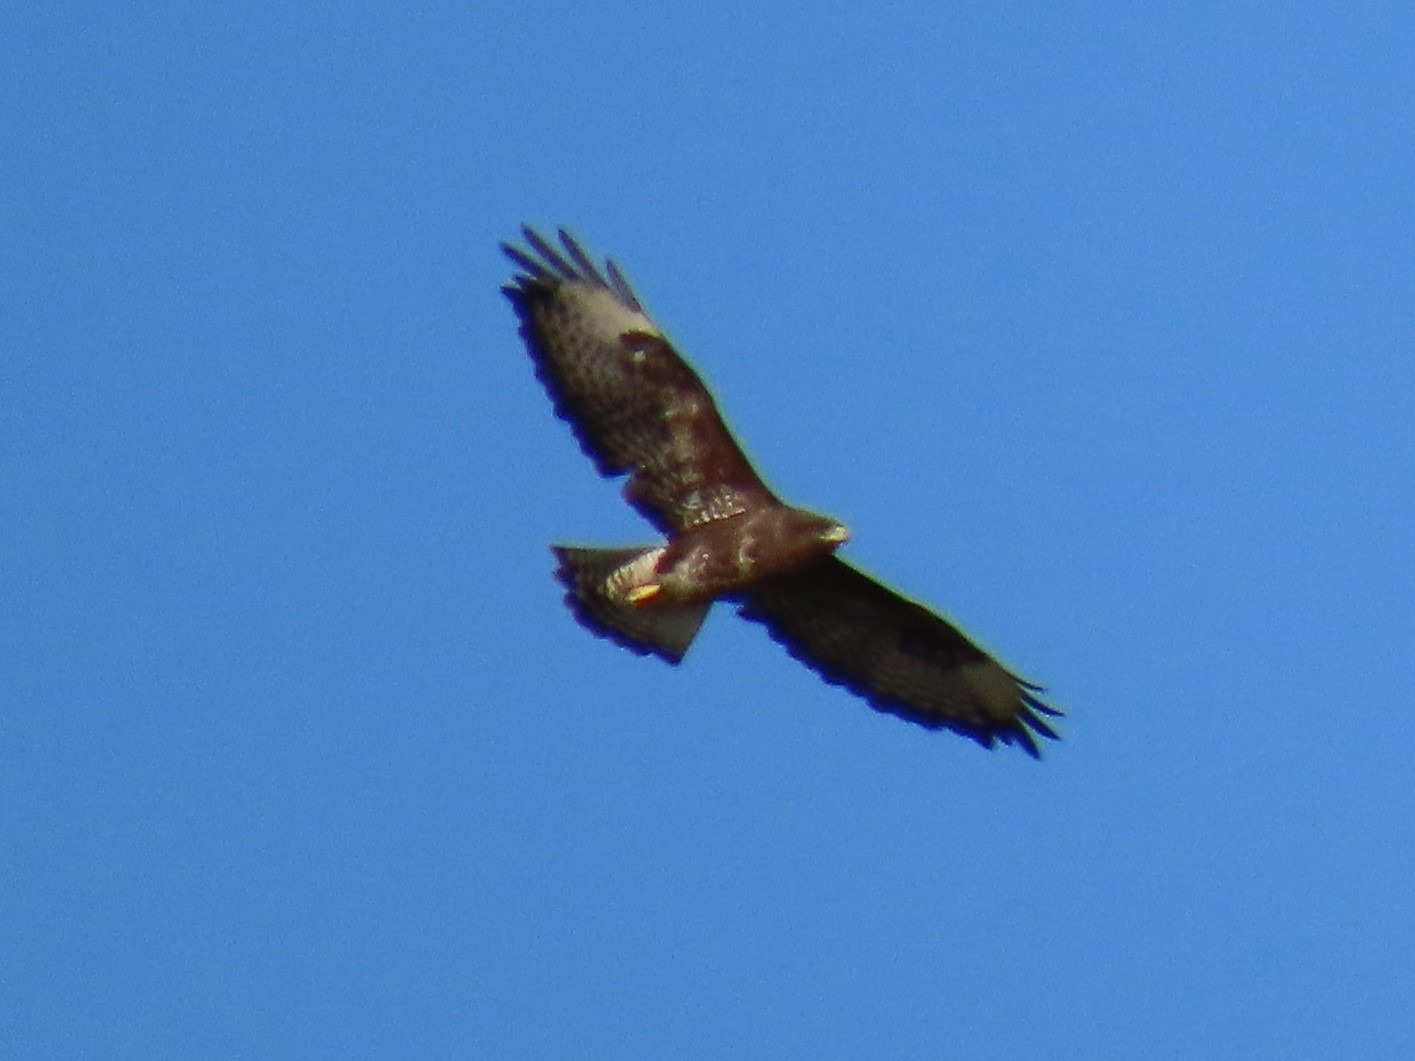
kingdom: Animalia
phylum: Chordata
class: Aves
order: Accipitriformes
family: Accipitridae
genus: Buteo
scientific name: Buteo buteo
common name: Musvåge
